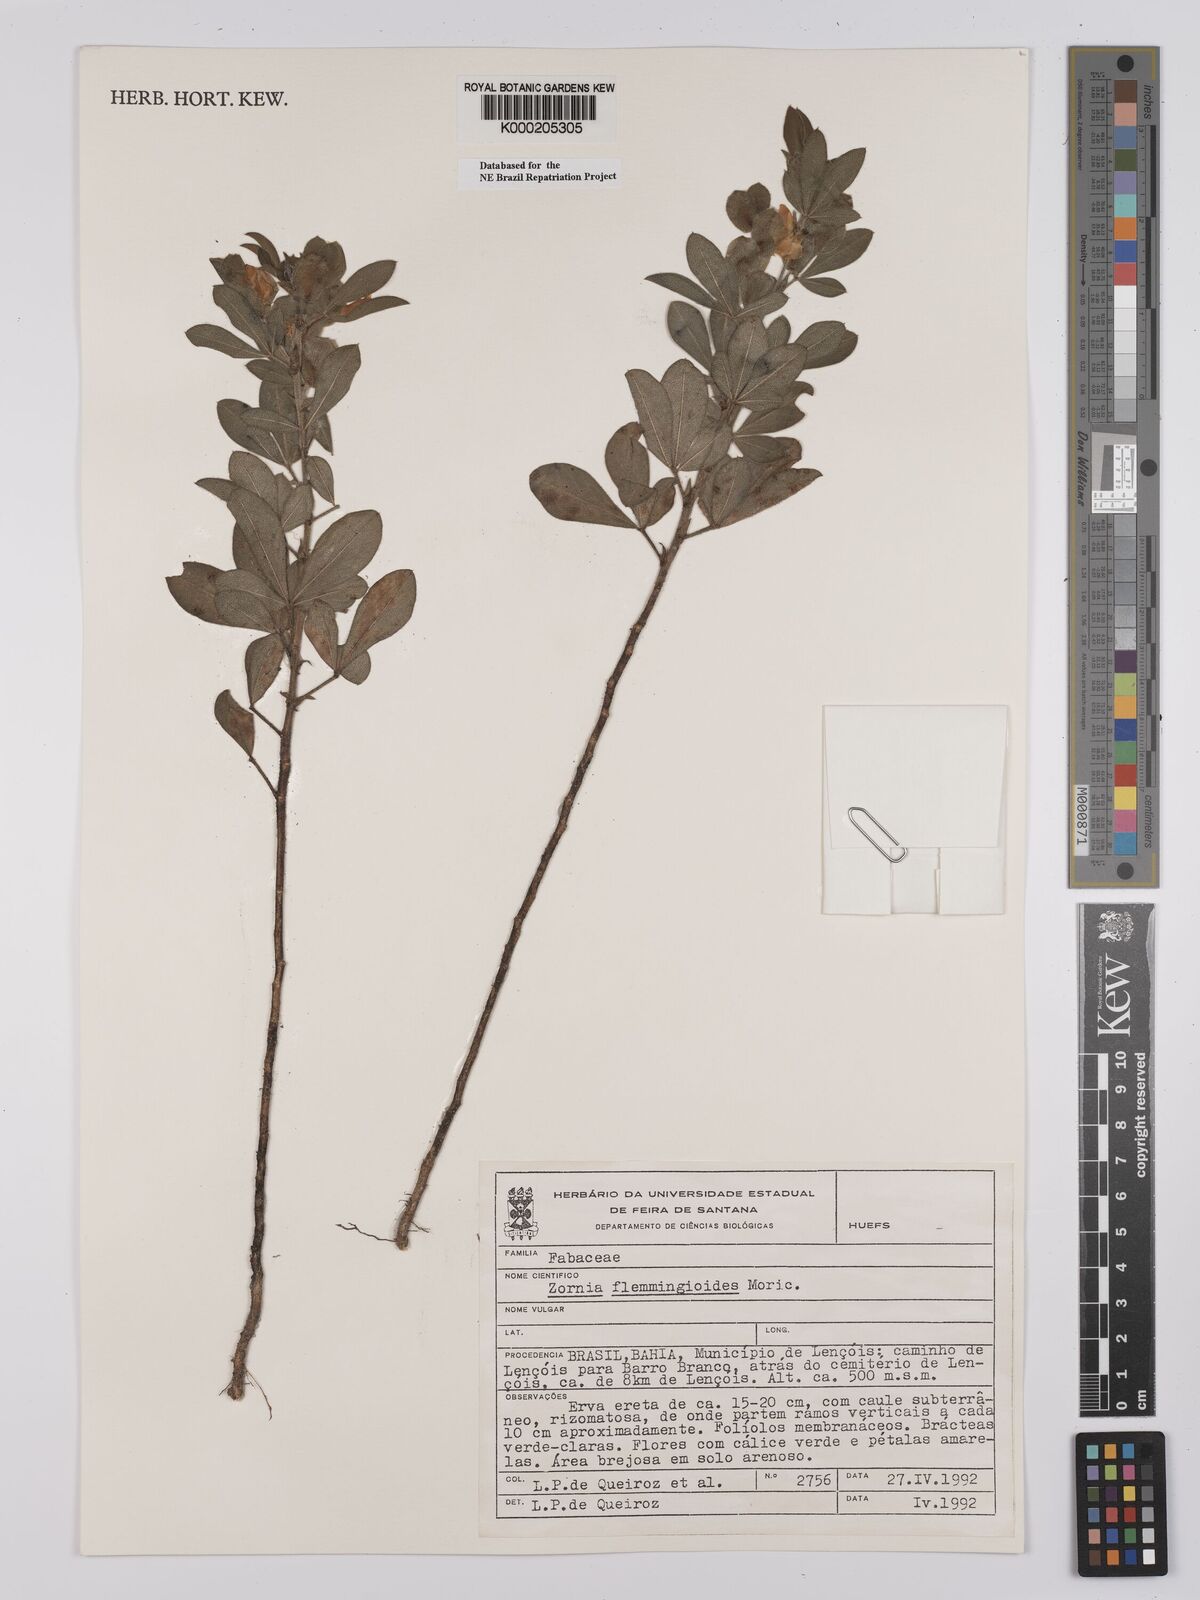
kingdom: Plantae
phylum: Tracheophyta
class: Magnoliopsida
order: Fabales
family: Fabaceae
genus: Zornia
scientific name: Zornia flemmingioides
